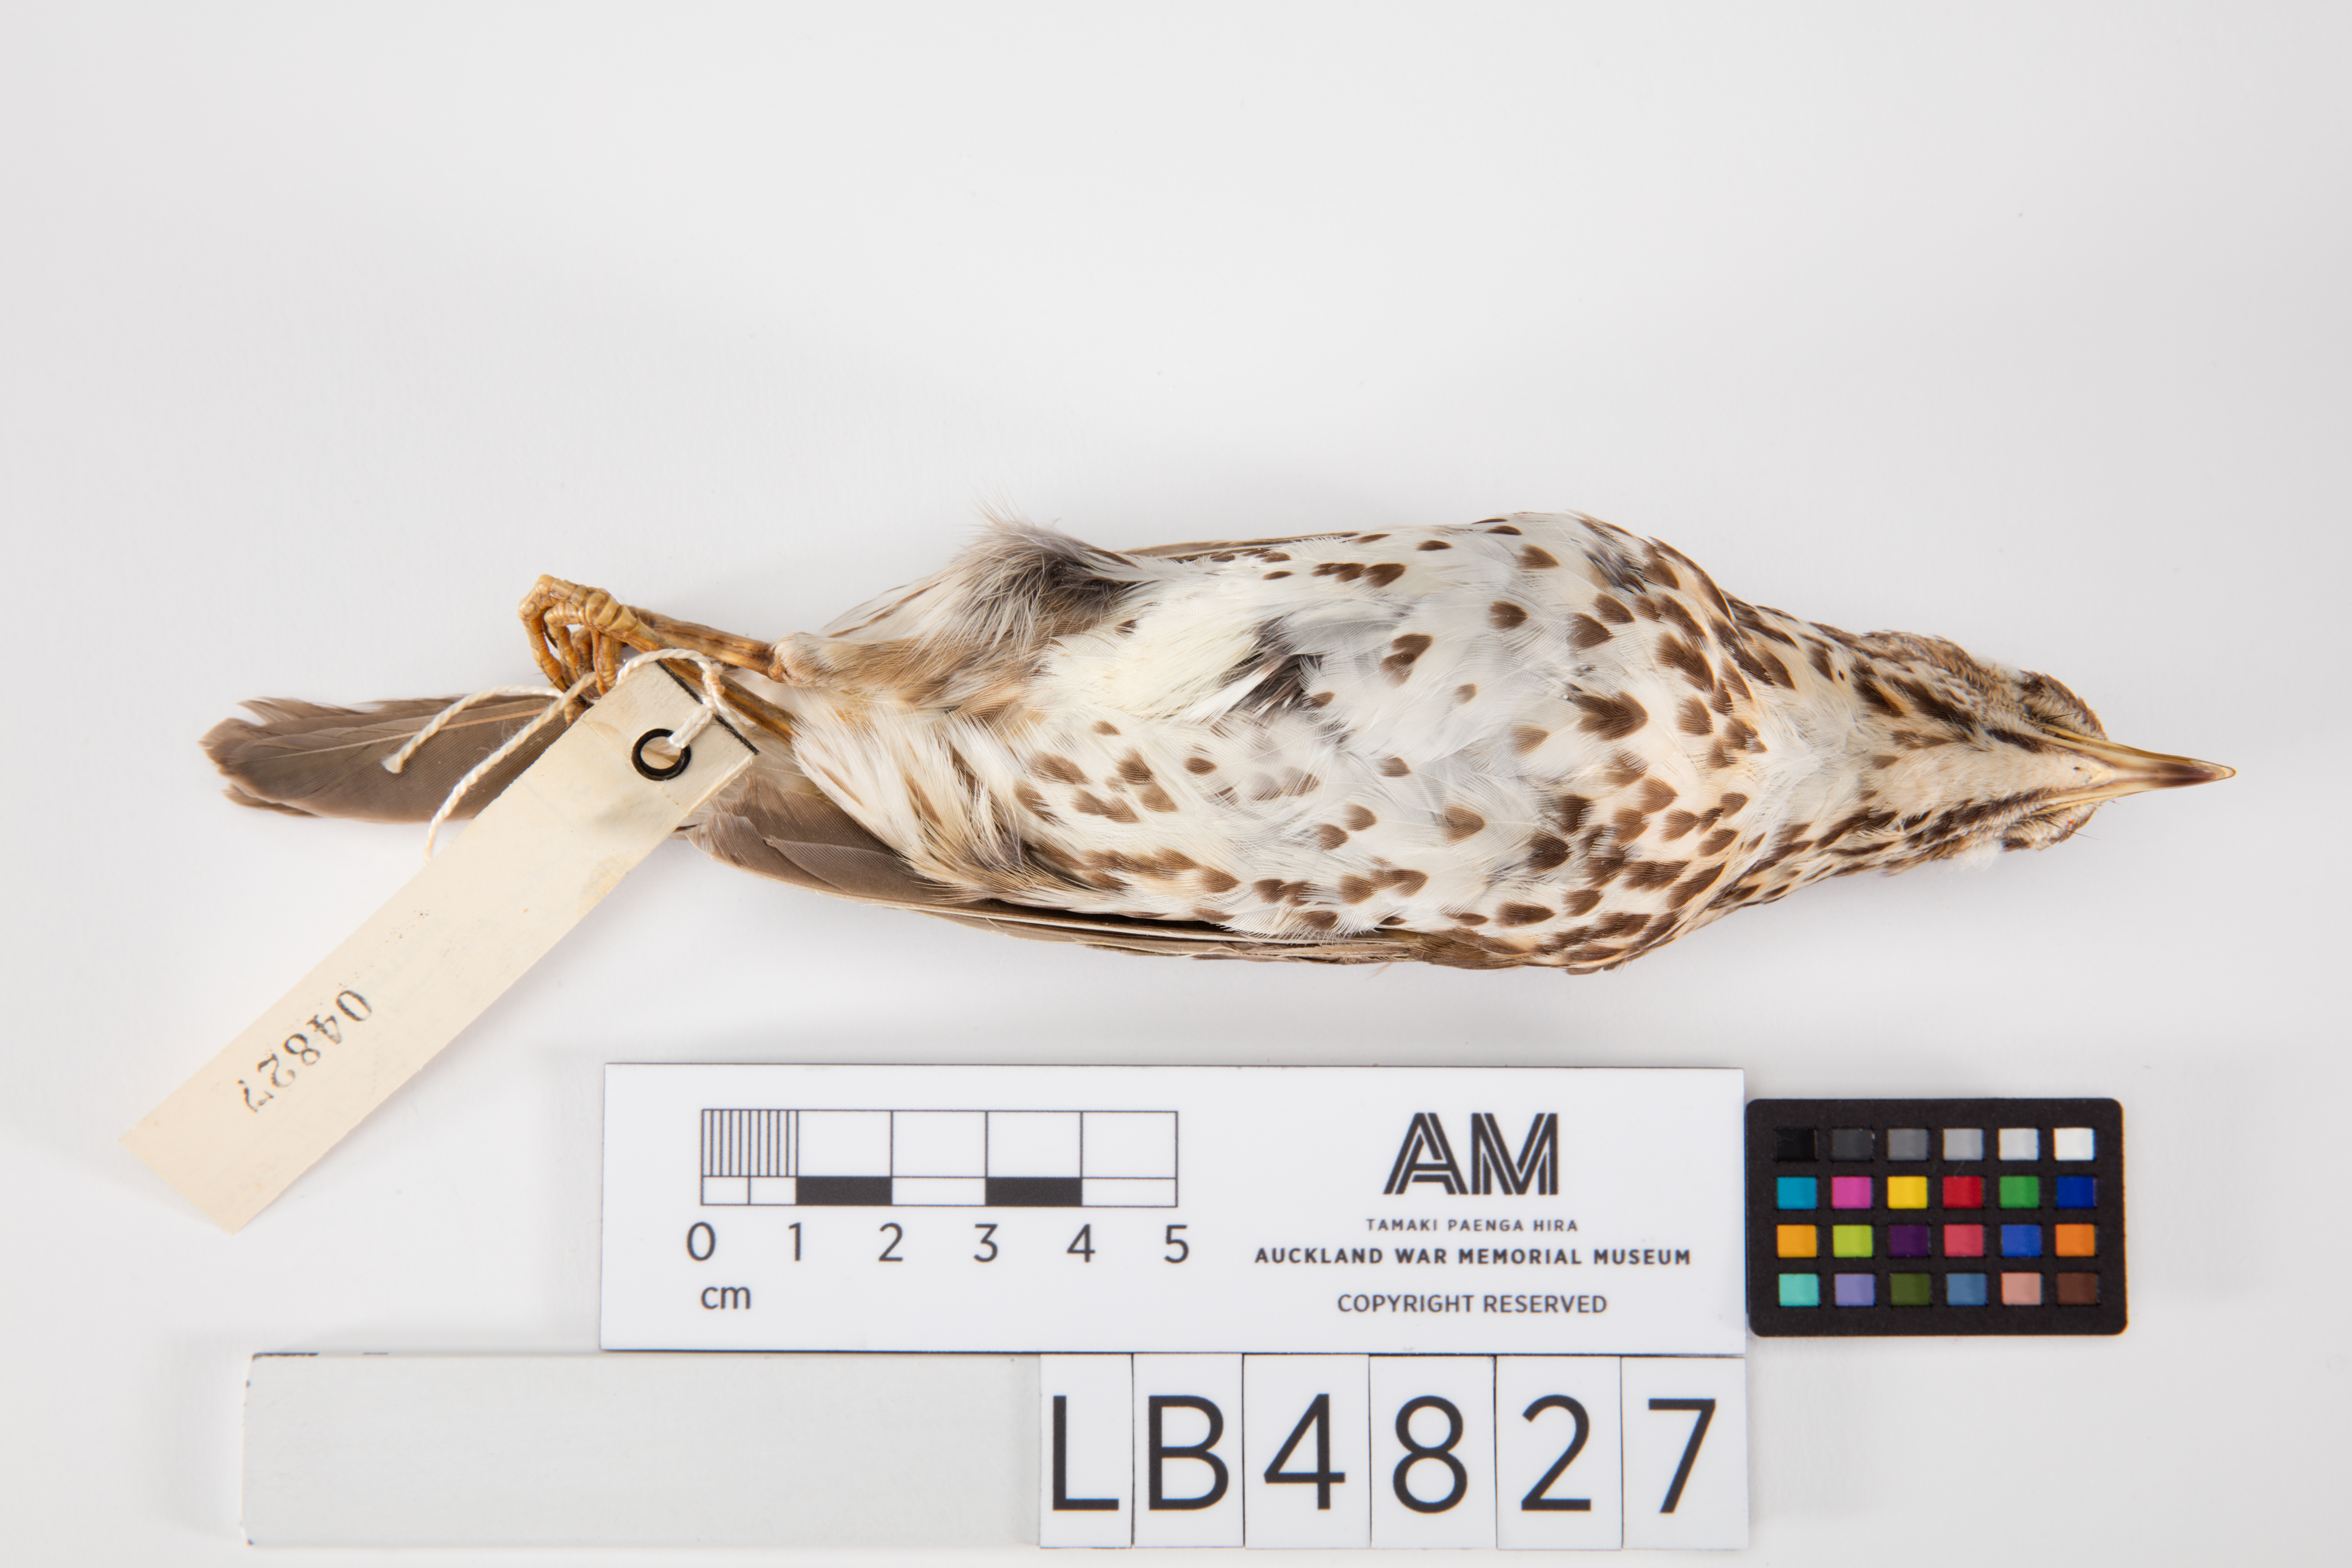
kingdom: Animalia
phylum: Chordata
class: Aves
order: Passeriformes
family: Turdidae
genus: Turdus
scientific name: Turdus philomelos
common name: Song thrush
